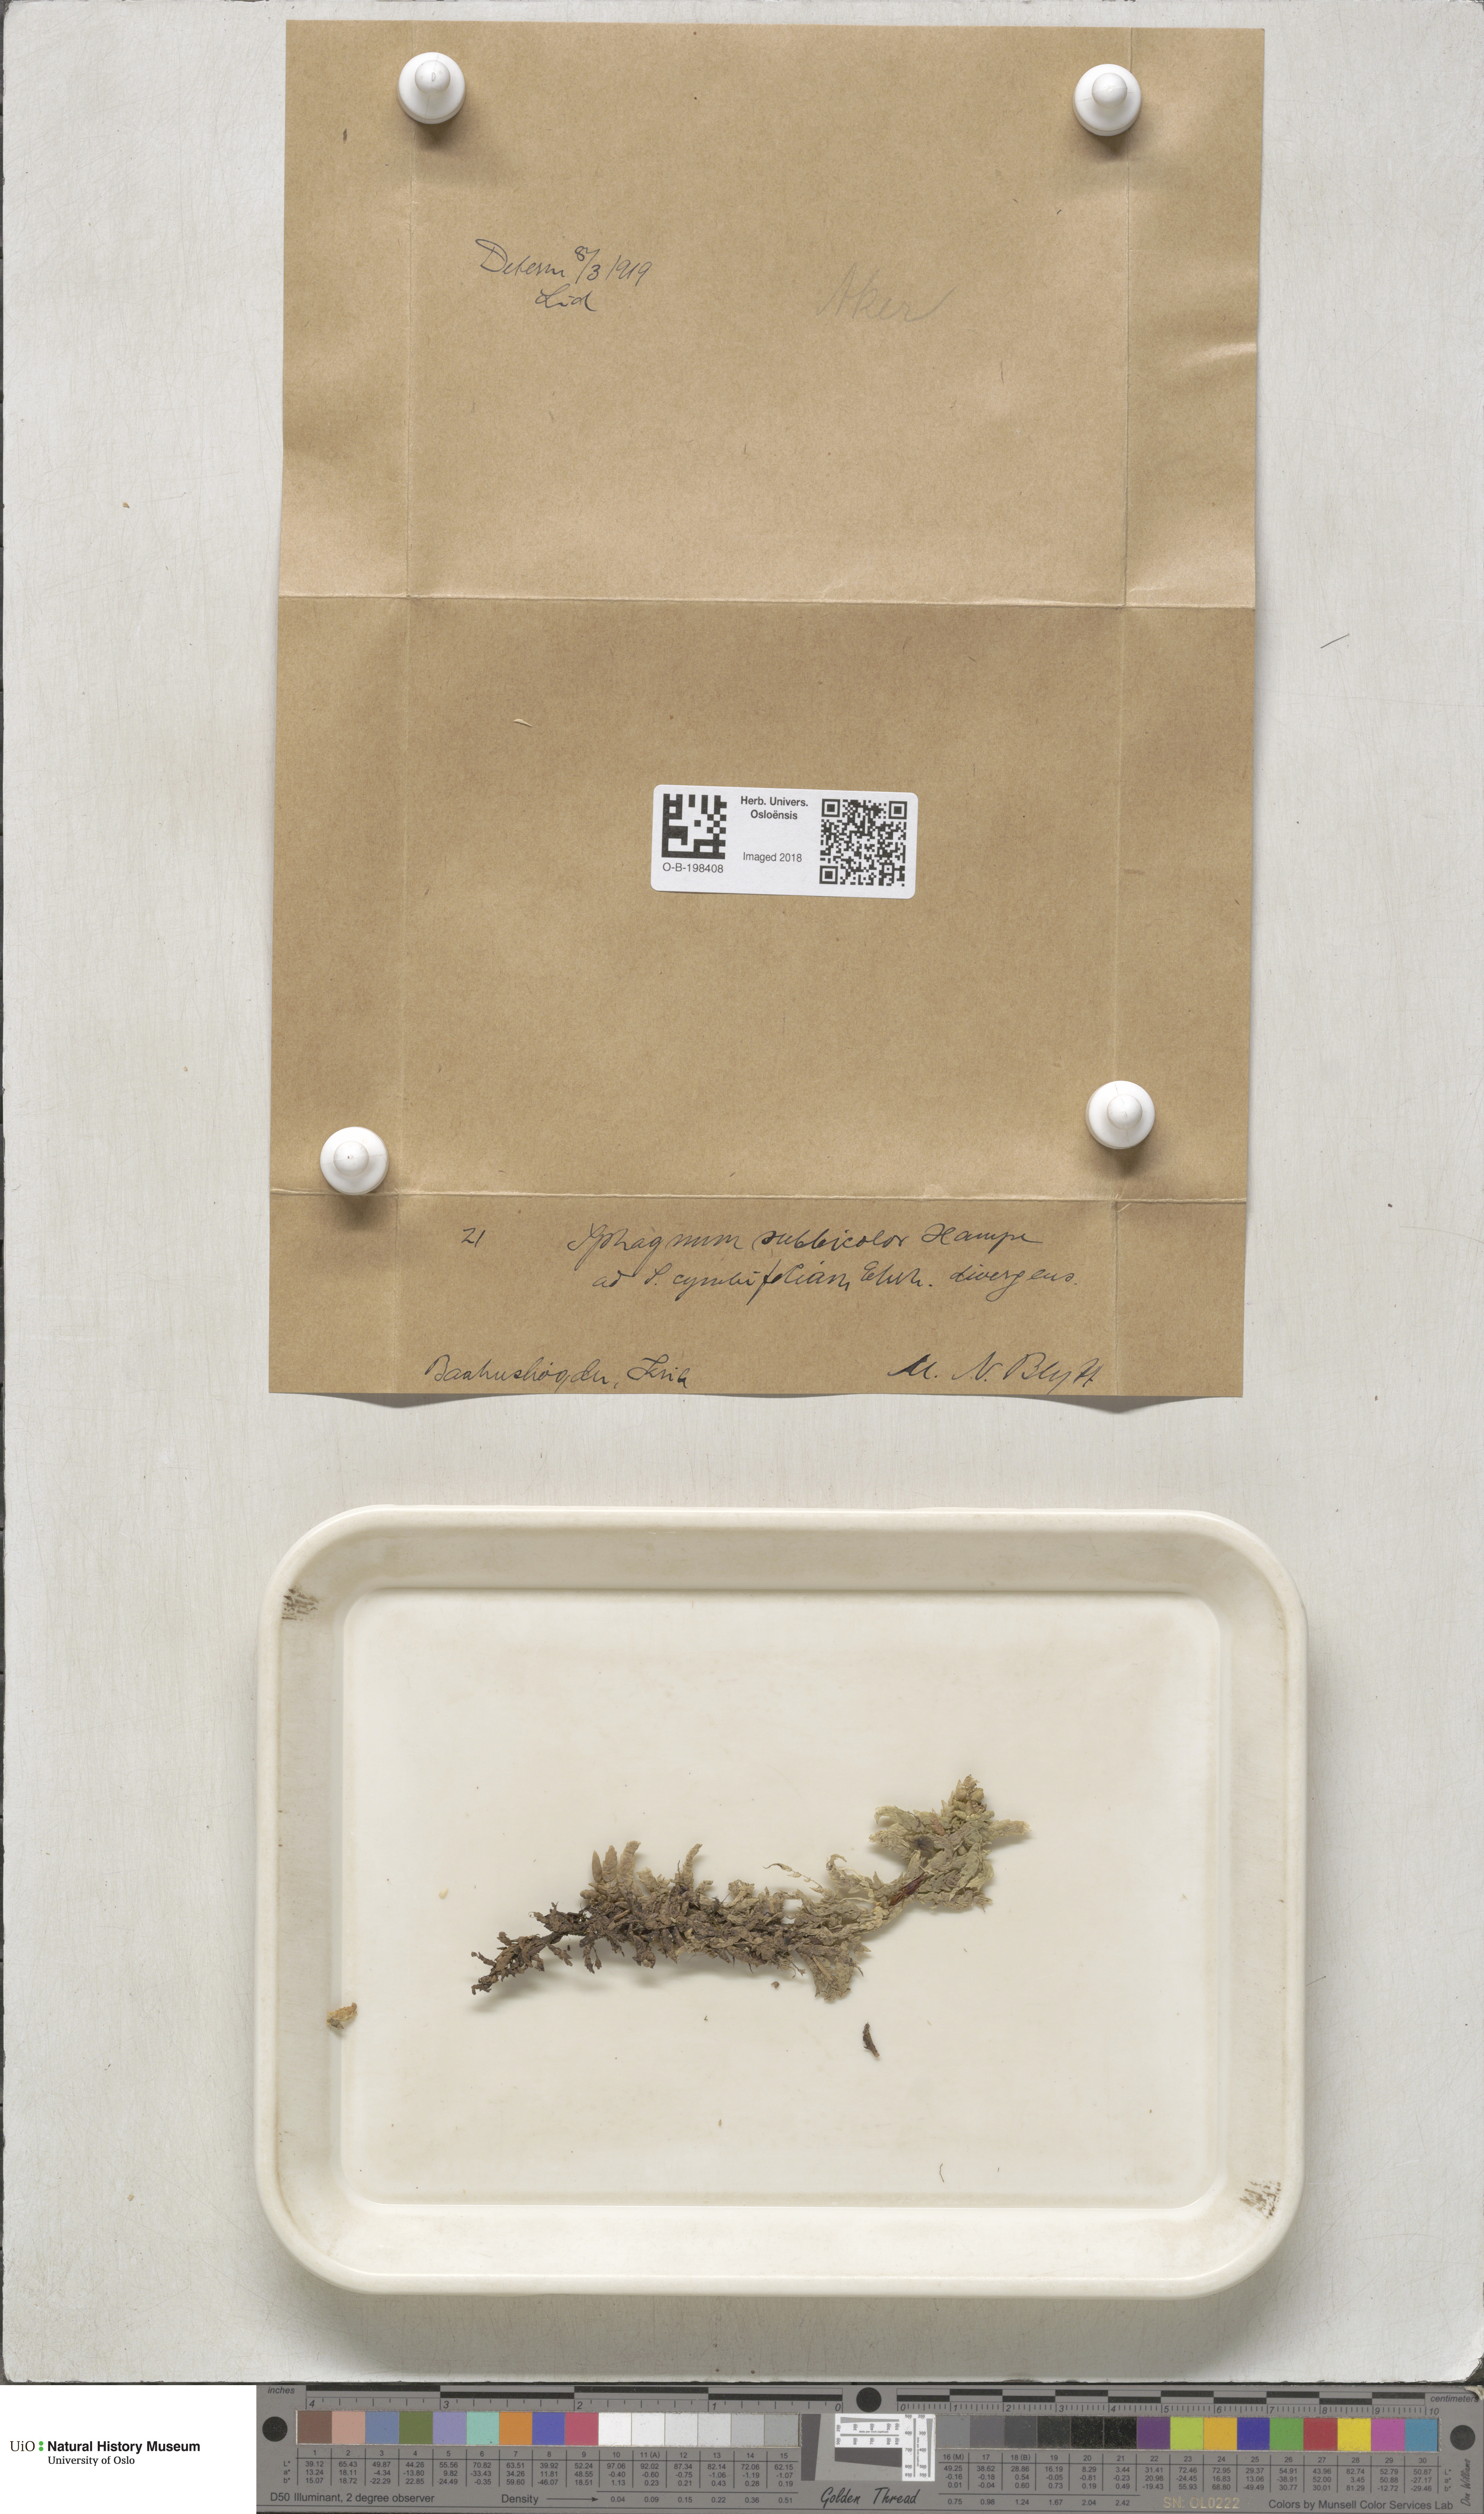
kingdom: Plantae
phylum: Bryophyta
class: Sphagnopsida
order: Sphagnales
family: Sphagnaceae
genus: Sphagnum
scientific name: Sphagnum centrale
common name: Central peat moss
